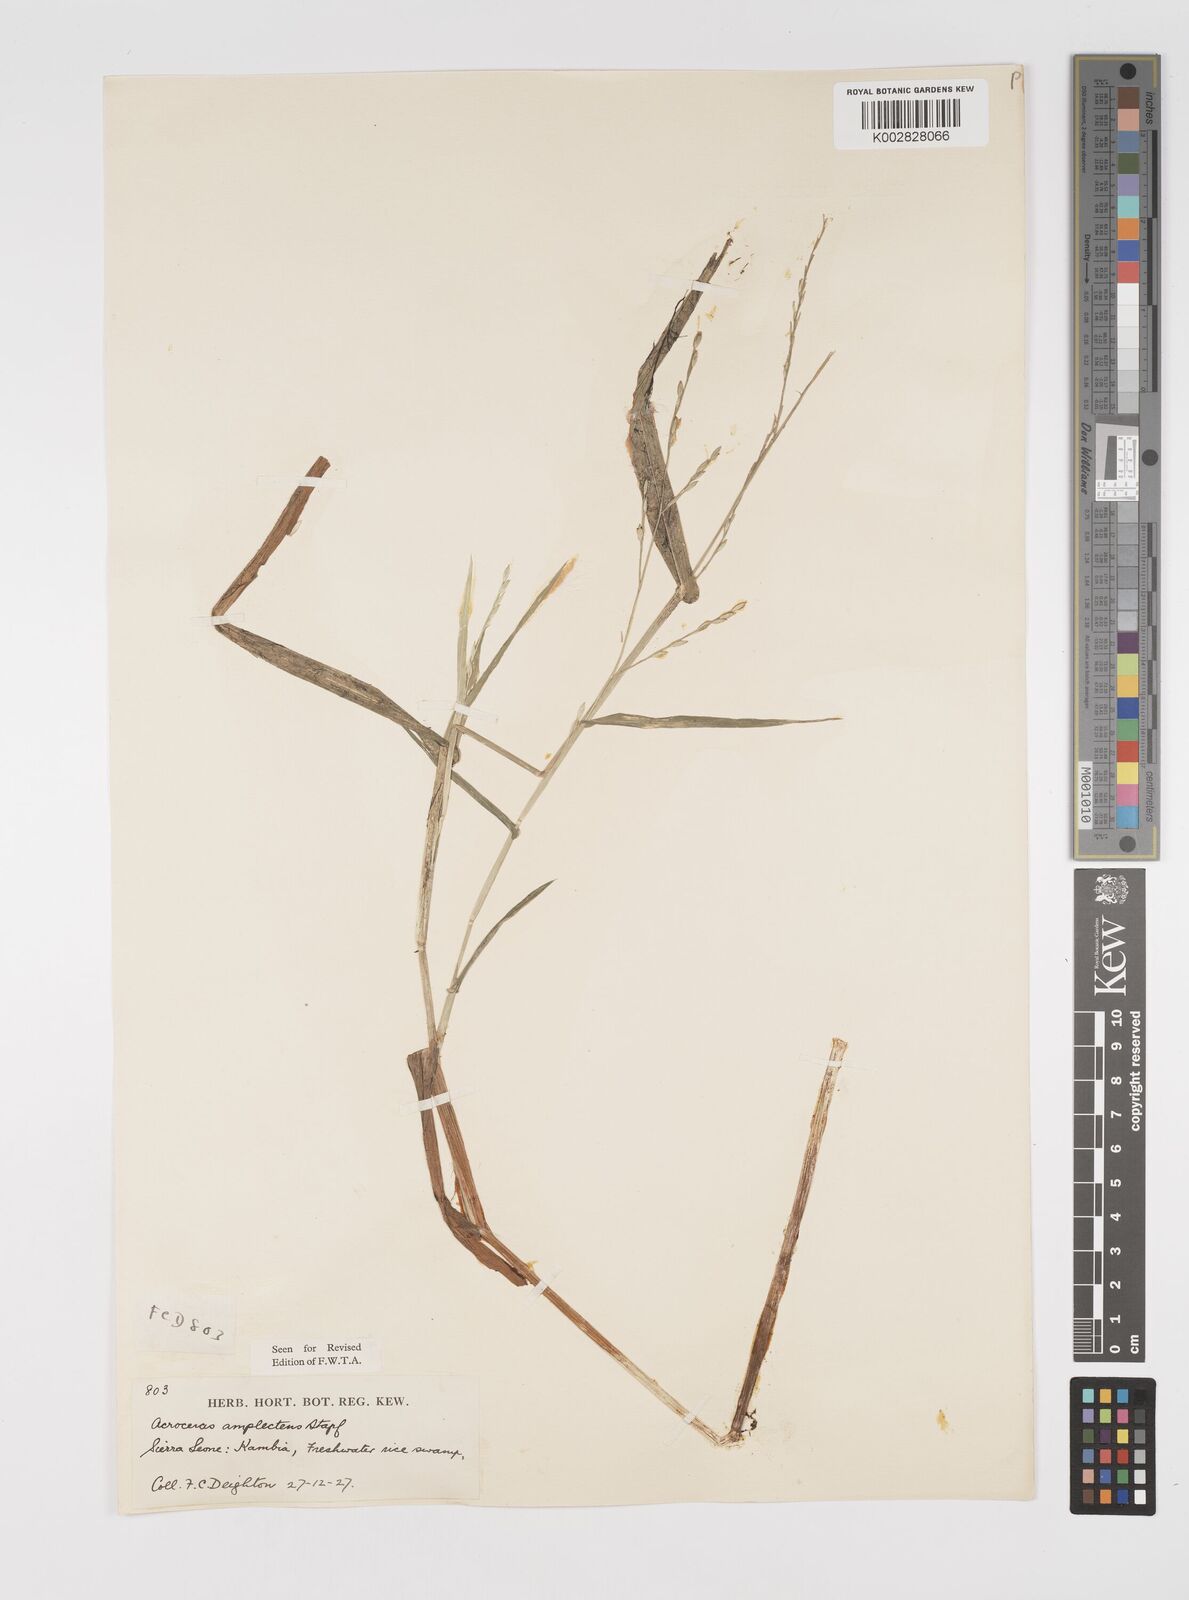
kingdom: Plantae
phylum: Tracheophyta
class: Liliopsida
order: Poales
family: Poaceae
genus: Acroceras
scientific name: Acroceras amplectens
